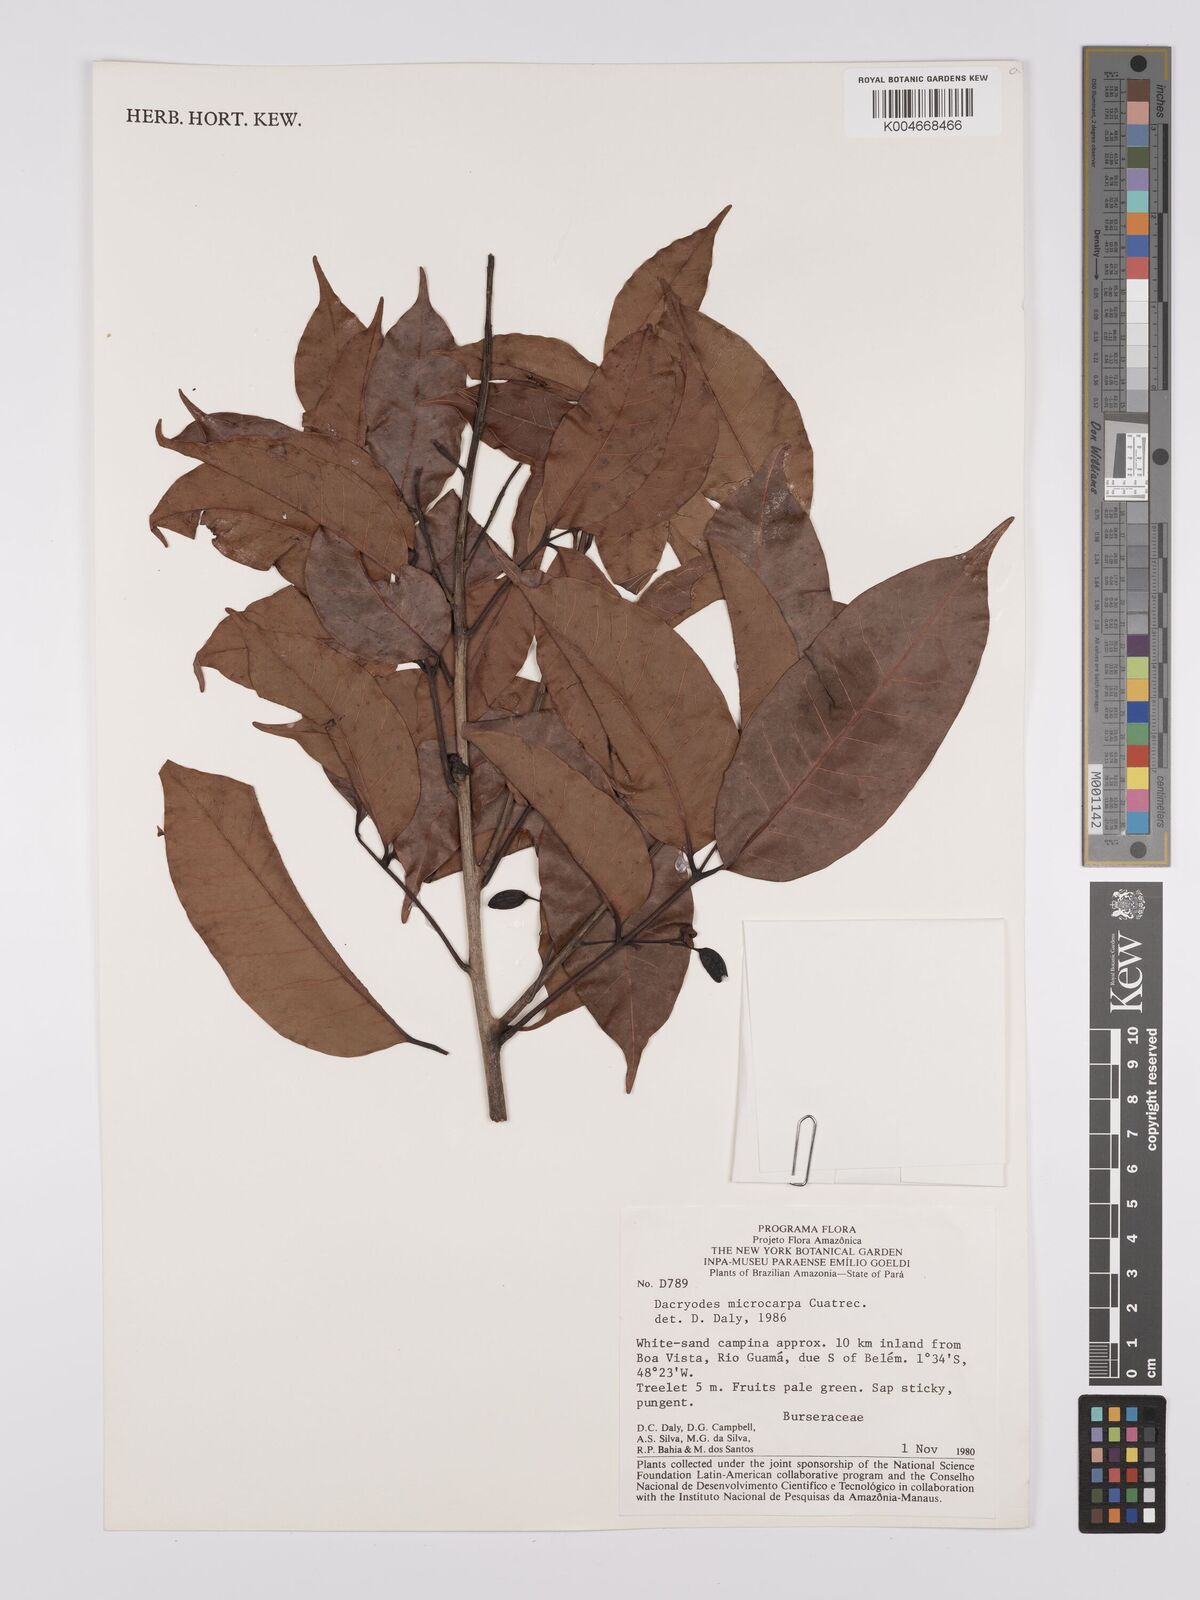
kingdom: Plantae
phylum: Tracheophyta
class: Magnoliopsida
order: Sapindales
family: Burseraceae
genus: Dacryodes
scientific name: Dacryodes microcarpa
